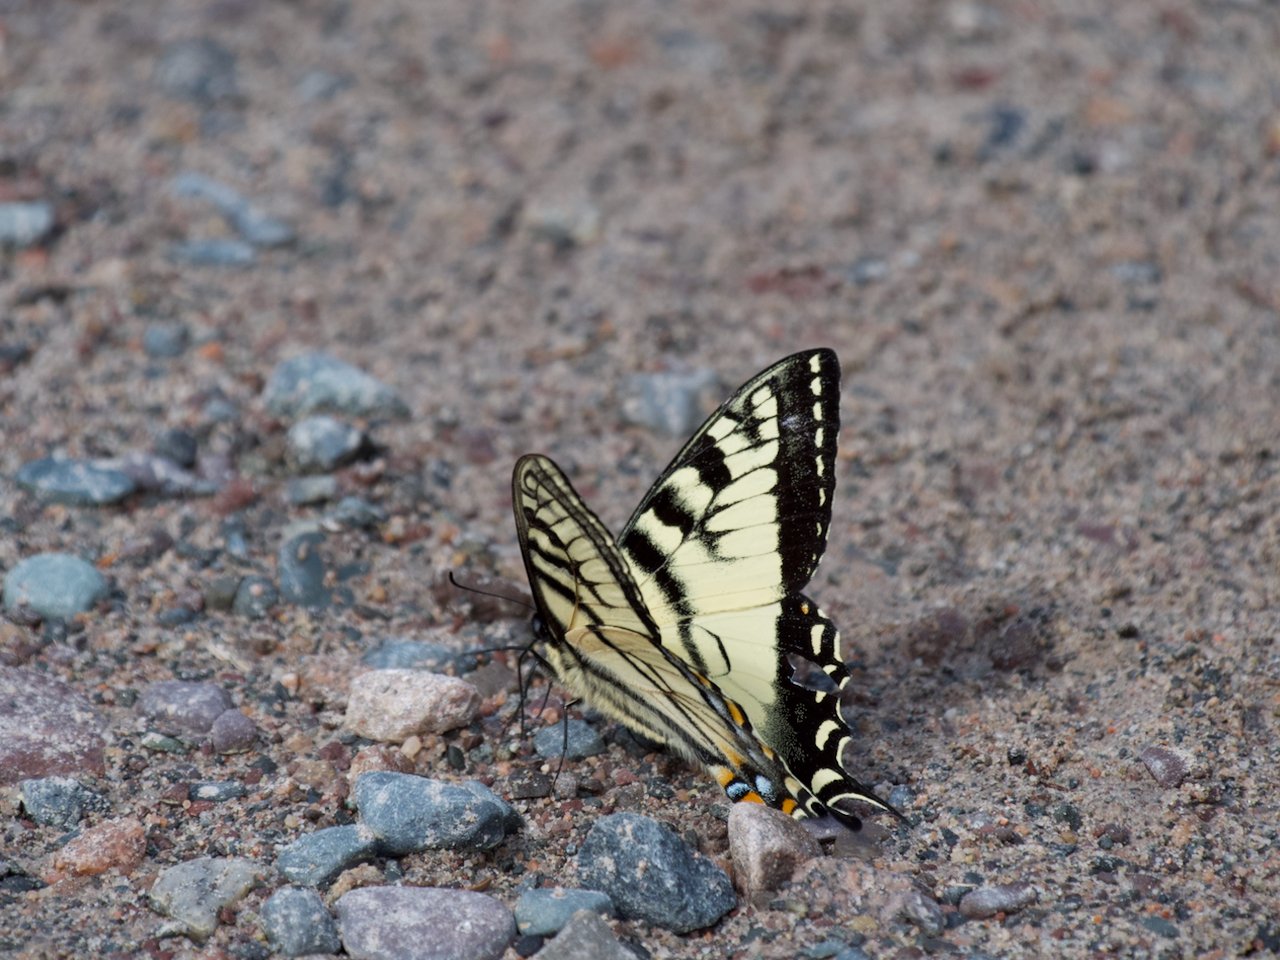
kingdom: Animalia
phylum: Arthropoda
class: Insecta
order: Lepidoptera
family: Papilionidae
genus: Pterourus
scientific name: Pterourus canadensis
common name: Canadian Tiger Swallowtail
